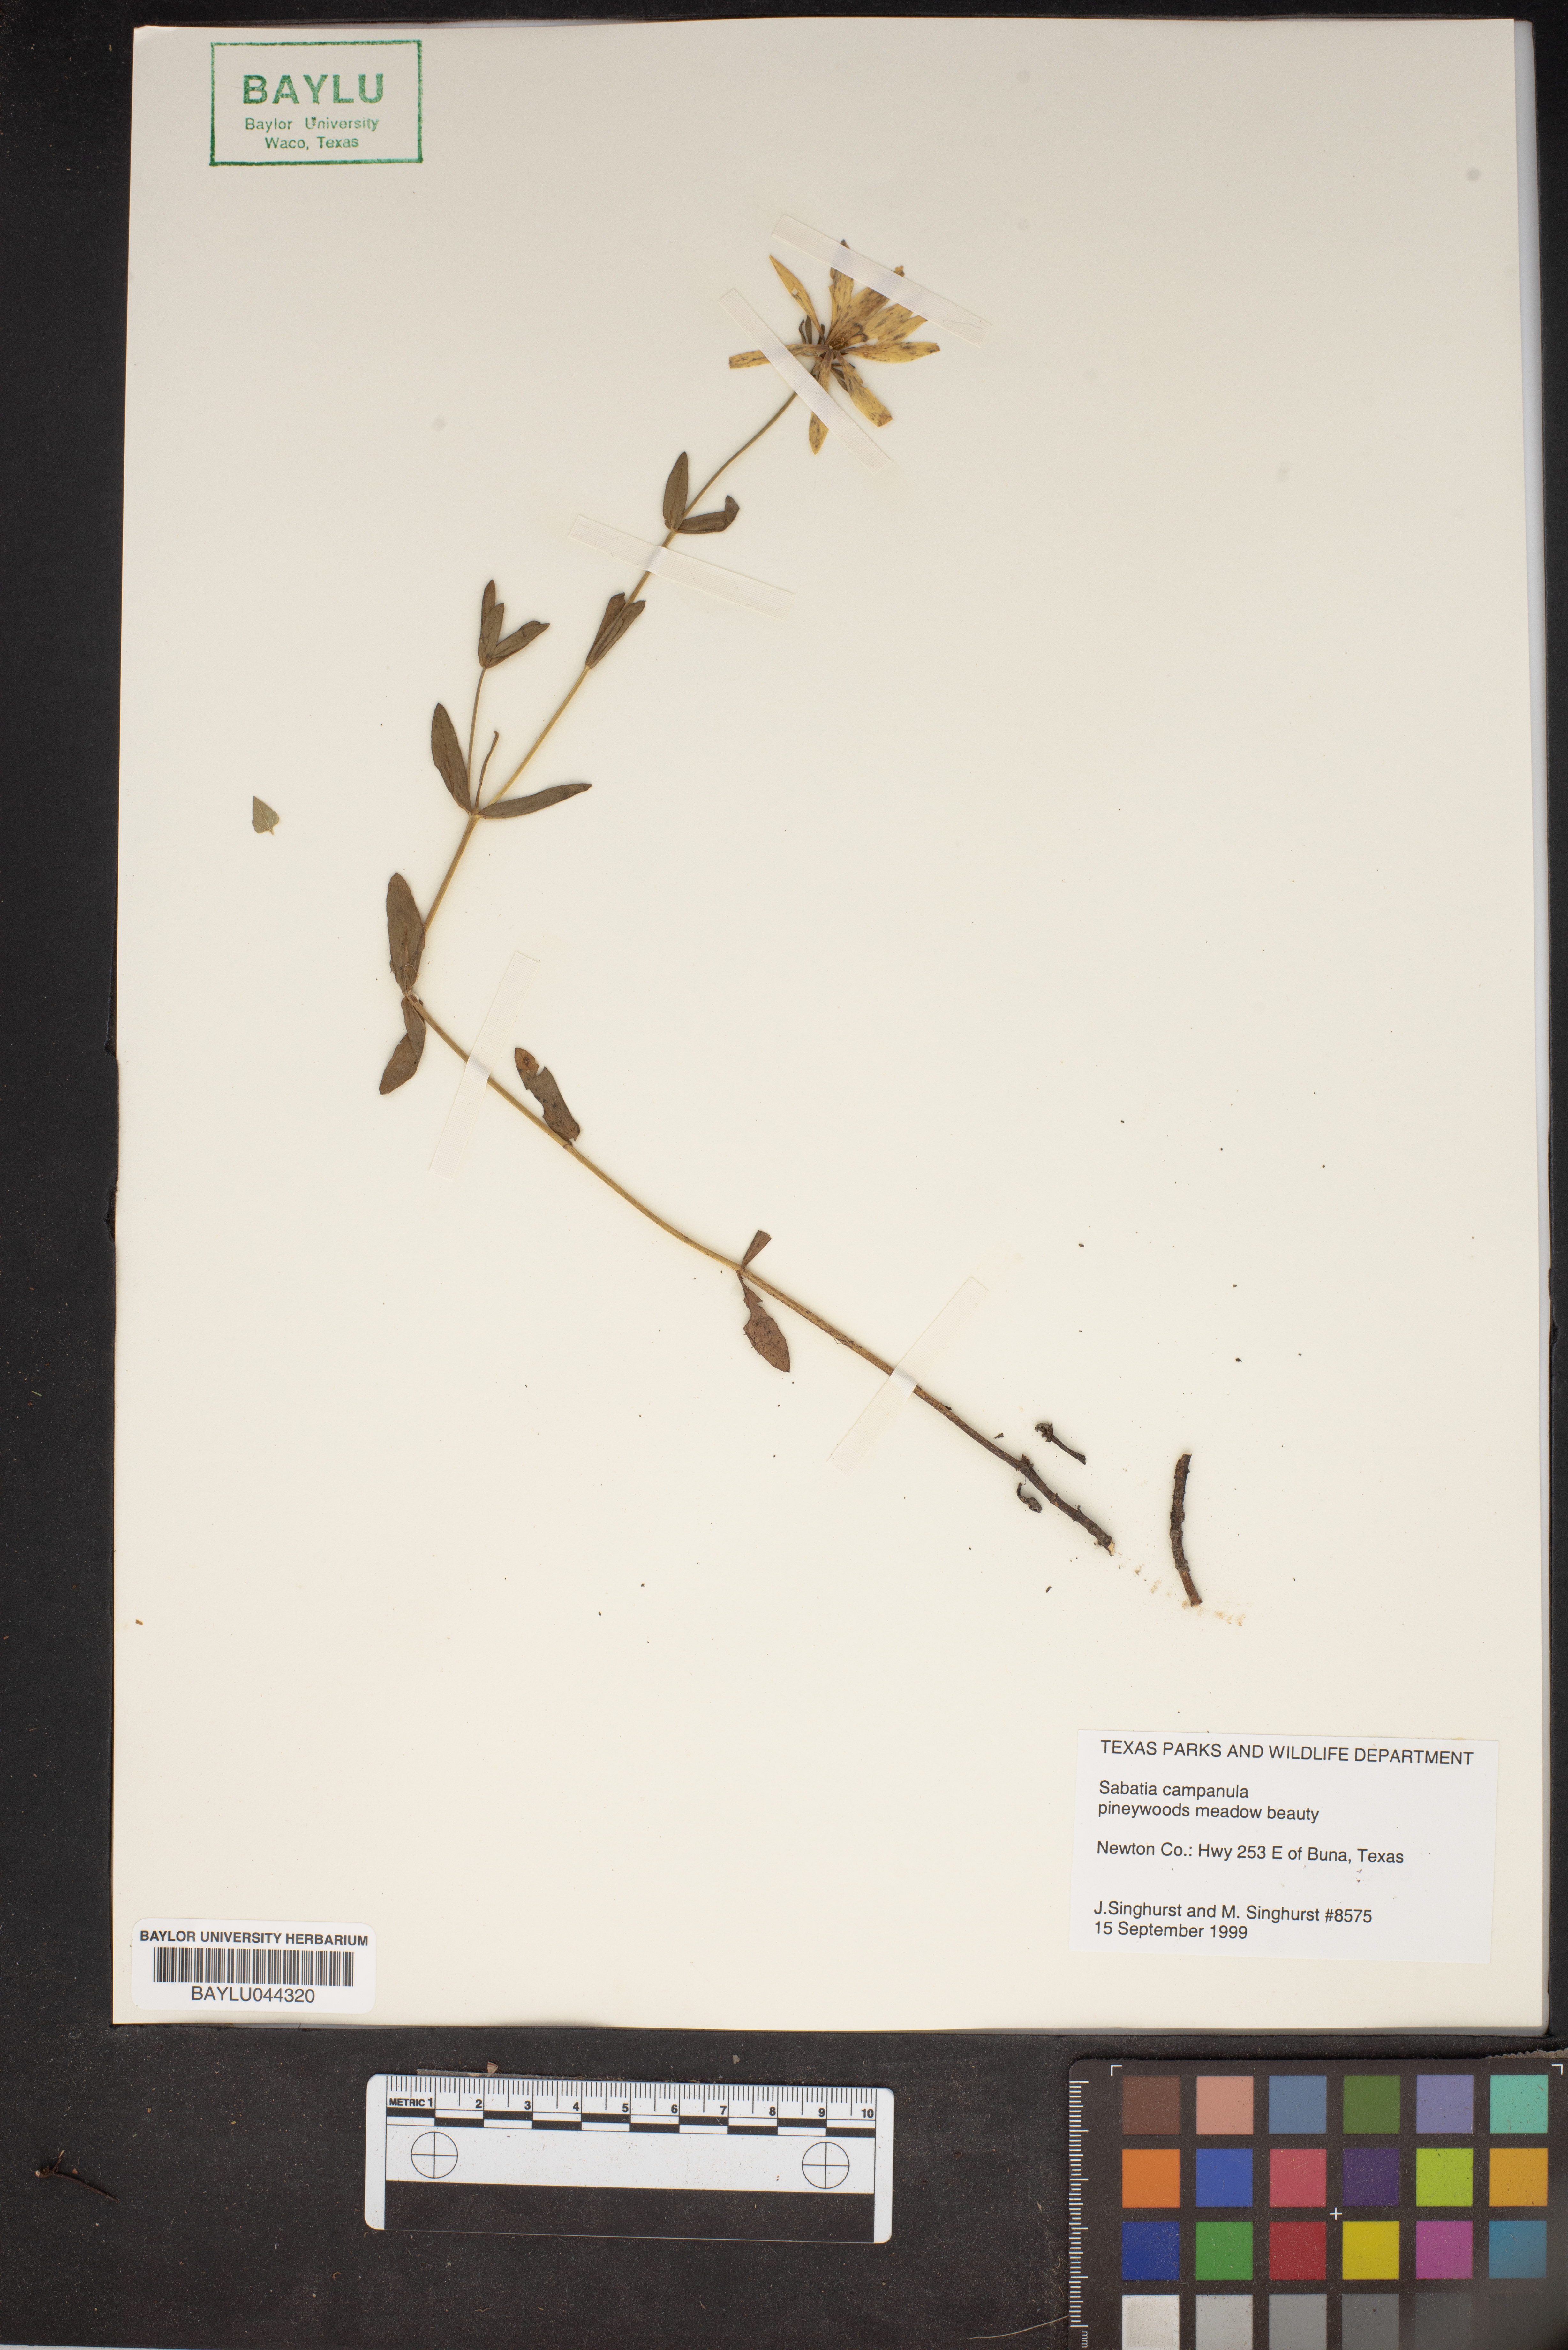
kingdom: Plantae
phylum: Tracheophyta
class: Magnoliopsida
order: Gentianales
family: Gentianaceae
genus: Sabatia
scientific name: Sabatia campanulata
